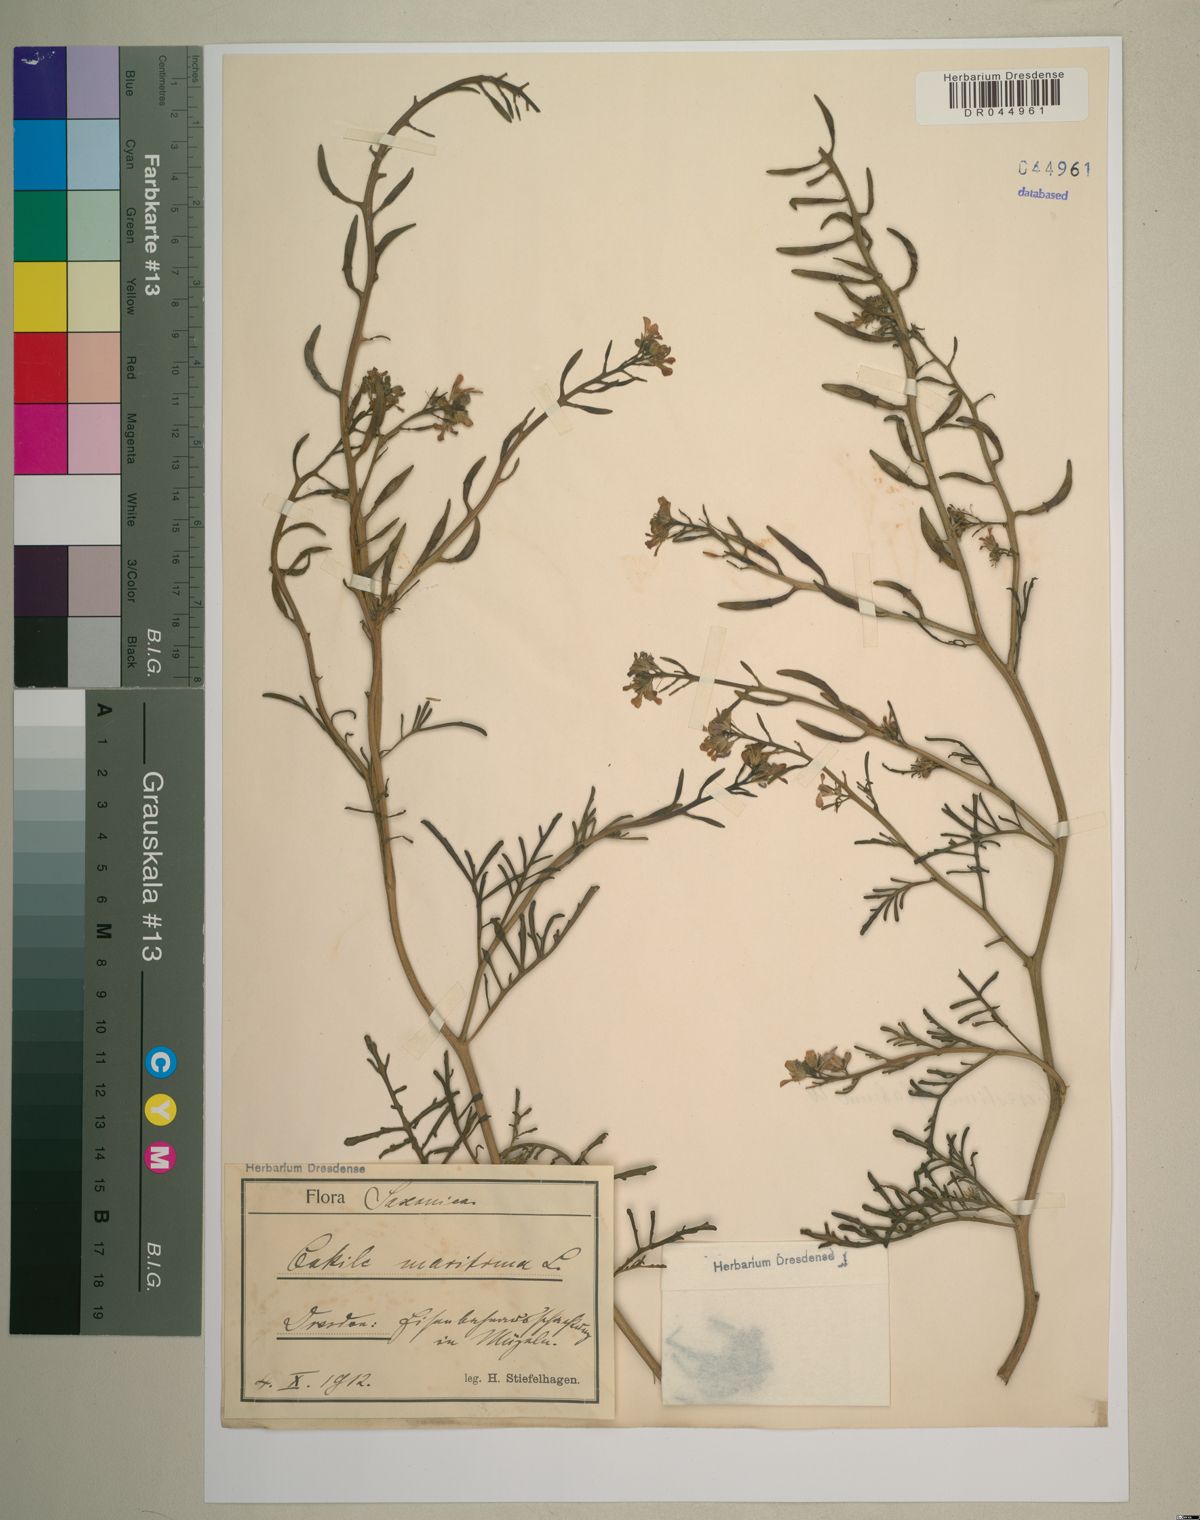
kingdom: Plantae
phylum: Tracheophyta
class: Magnoliopsida
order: Brassicales
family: Brassicaceae
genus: Cakile
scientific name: Cakile maritima
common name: Sea rocket
